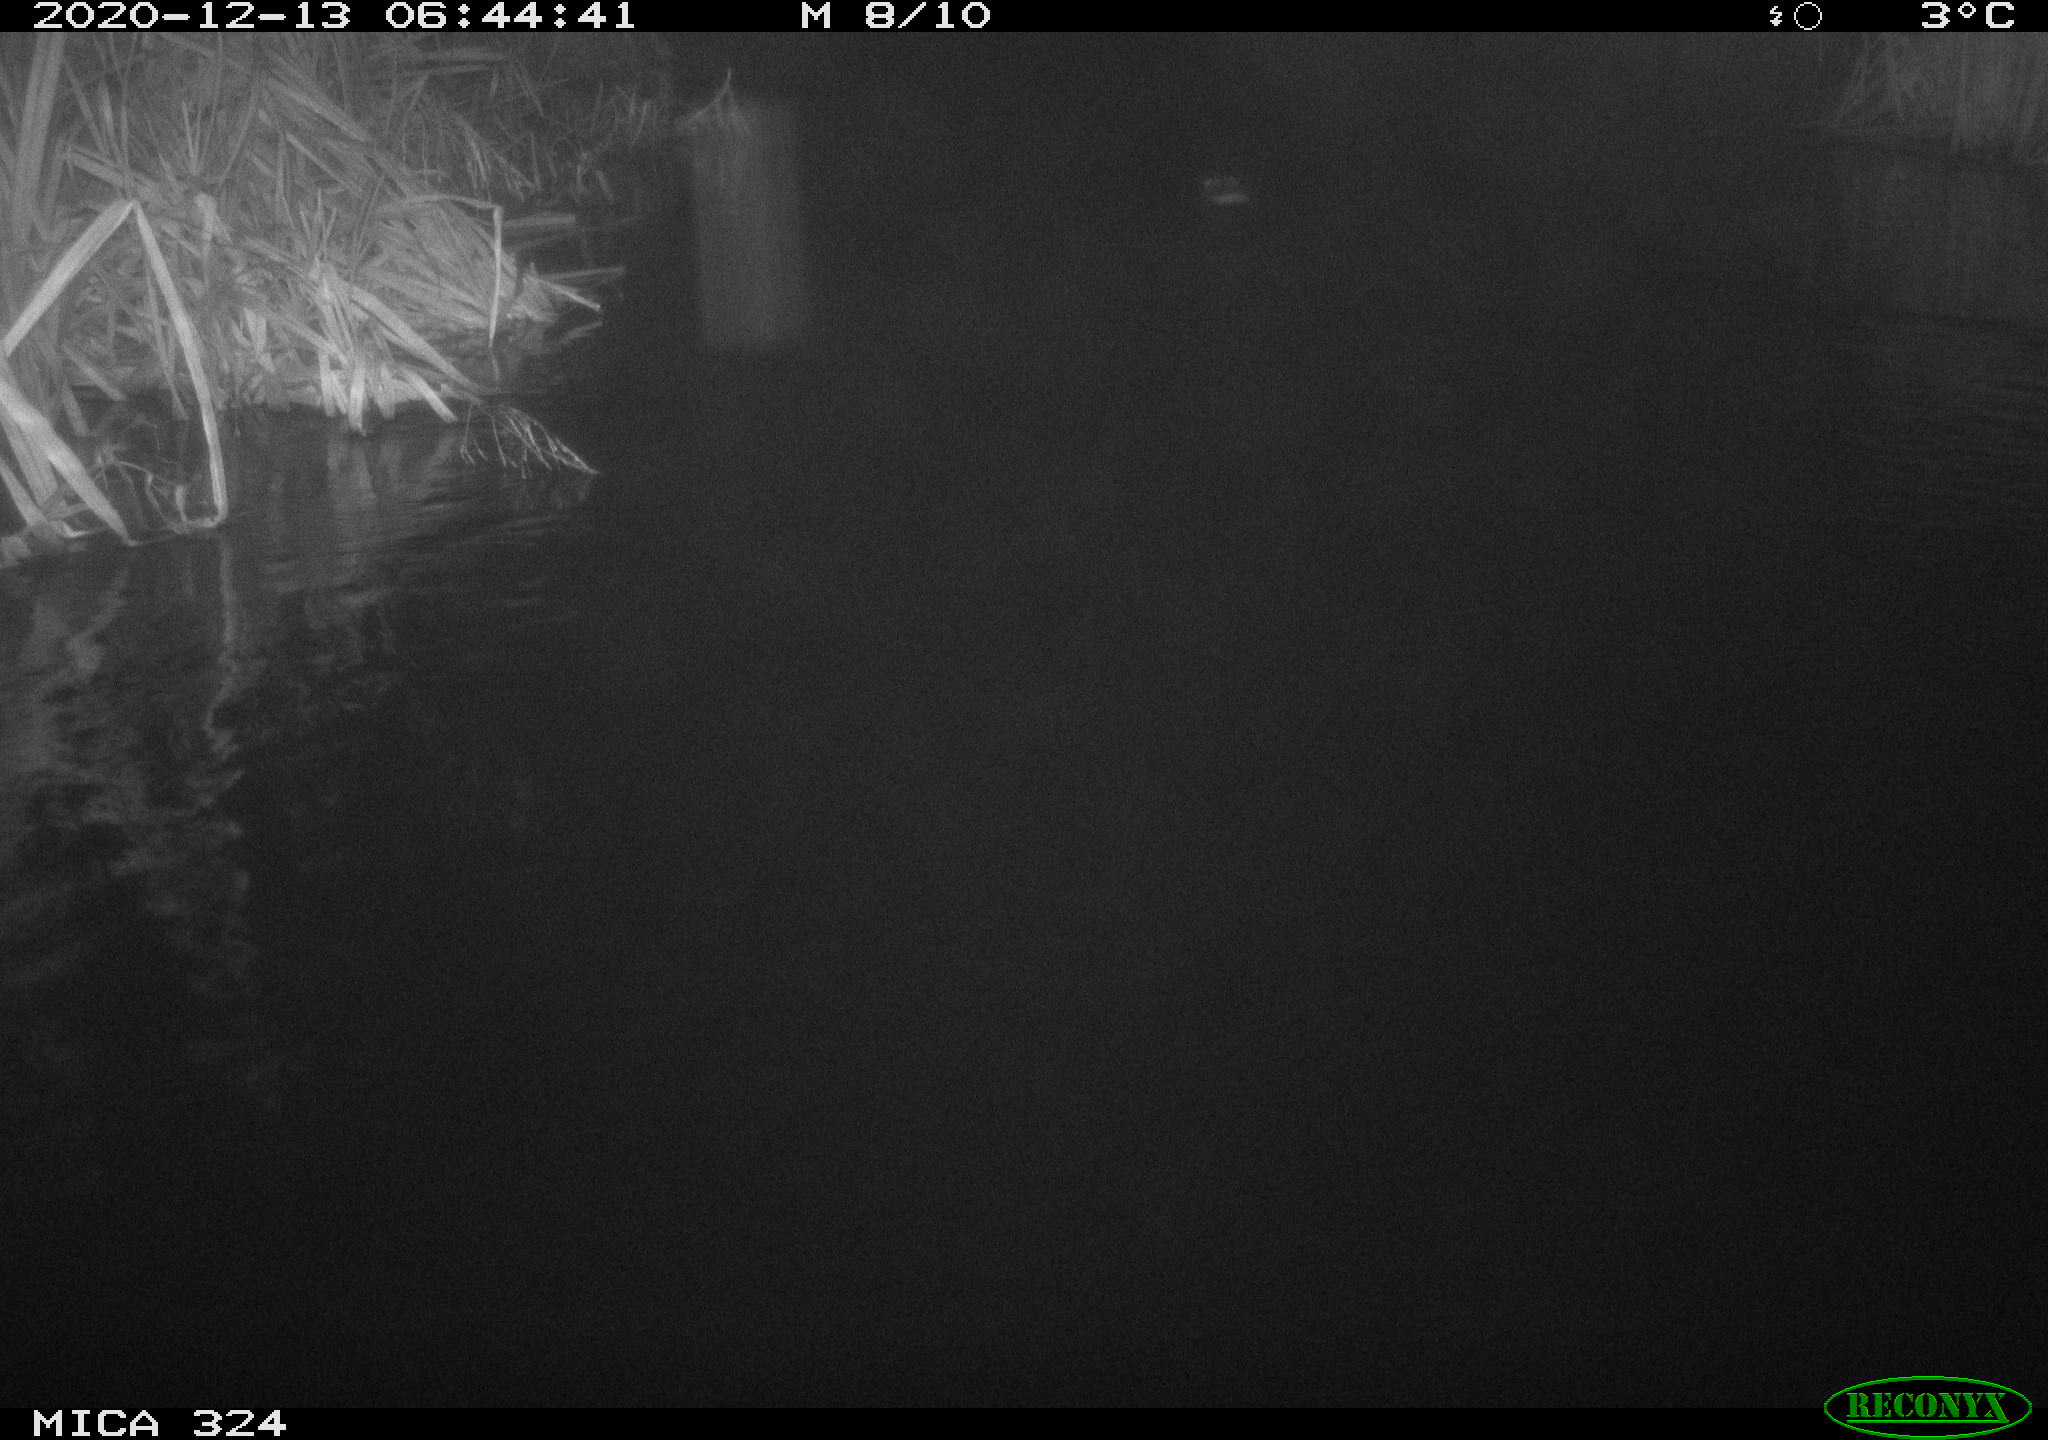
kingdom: Animalia
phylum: Chordata
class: Mammalia
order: Rodentia
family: Cricetidae
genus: Ondatra
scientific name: Ondatra zibethicus
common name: Muskrat
